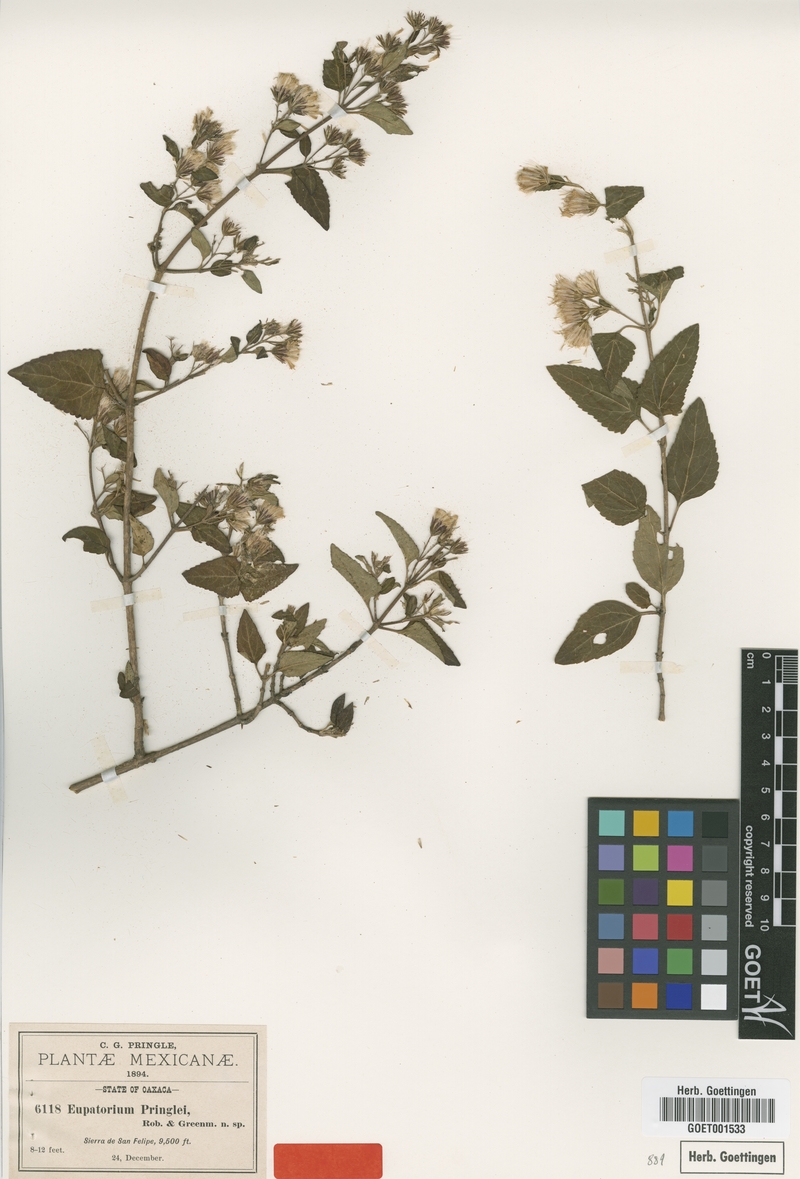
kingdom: Plantae
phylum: Tracheophyta
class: Magnoliopsida
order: Asterales
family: Asteraceae
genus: Ageratina
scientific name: Ageratina pringlei
